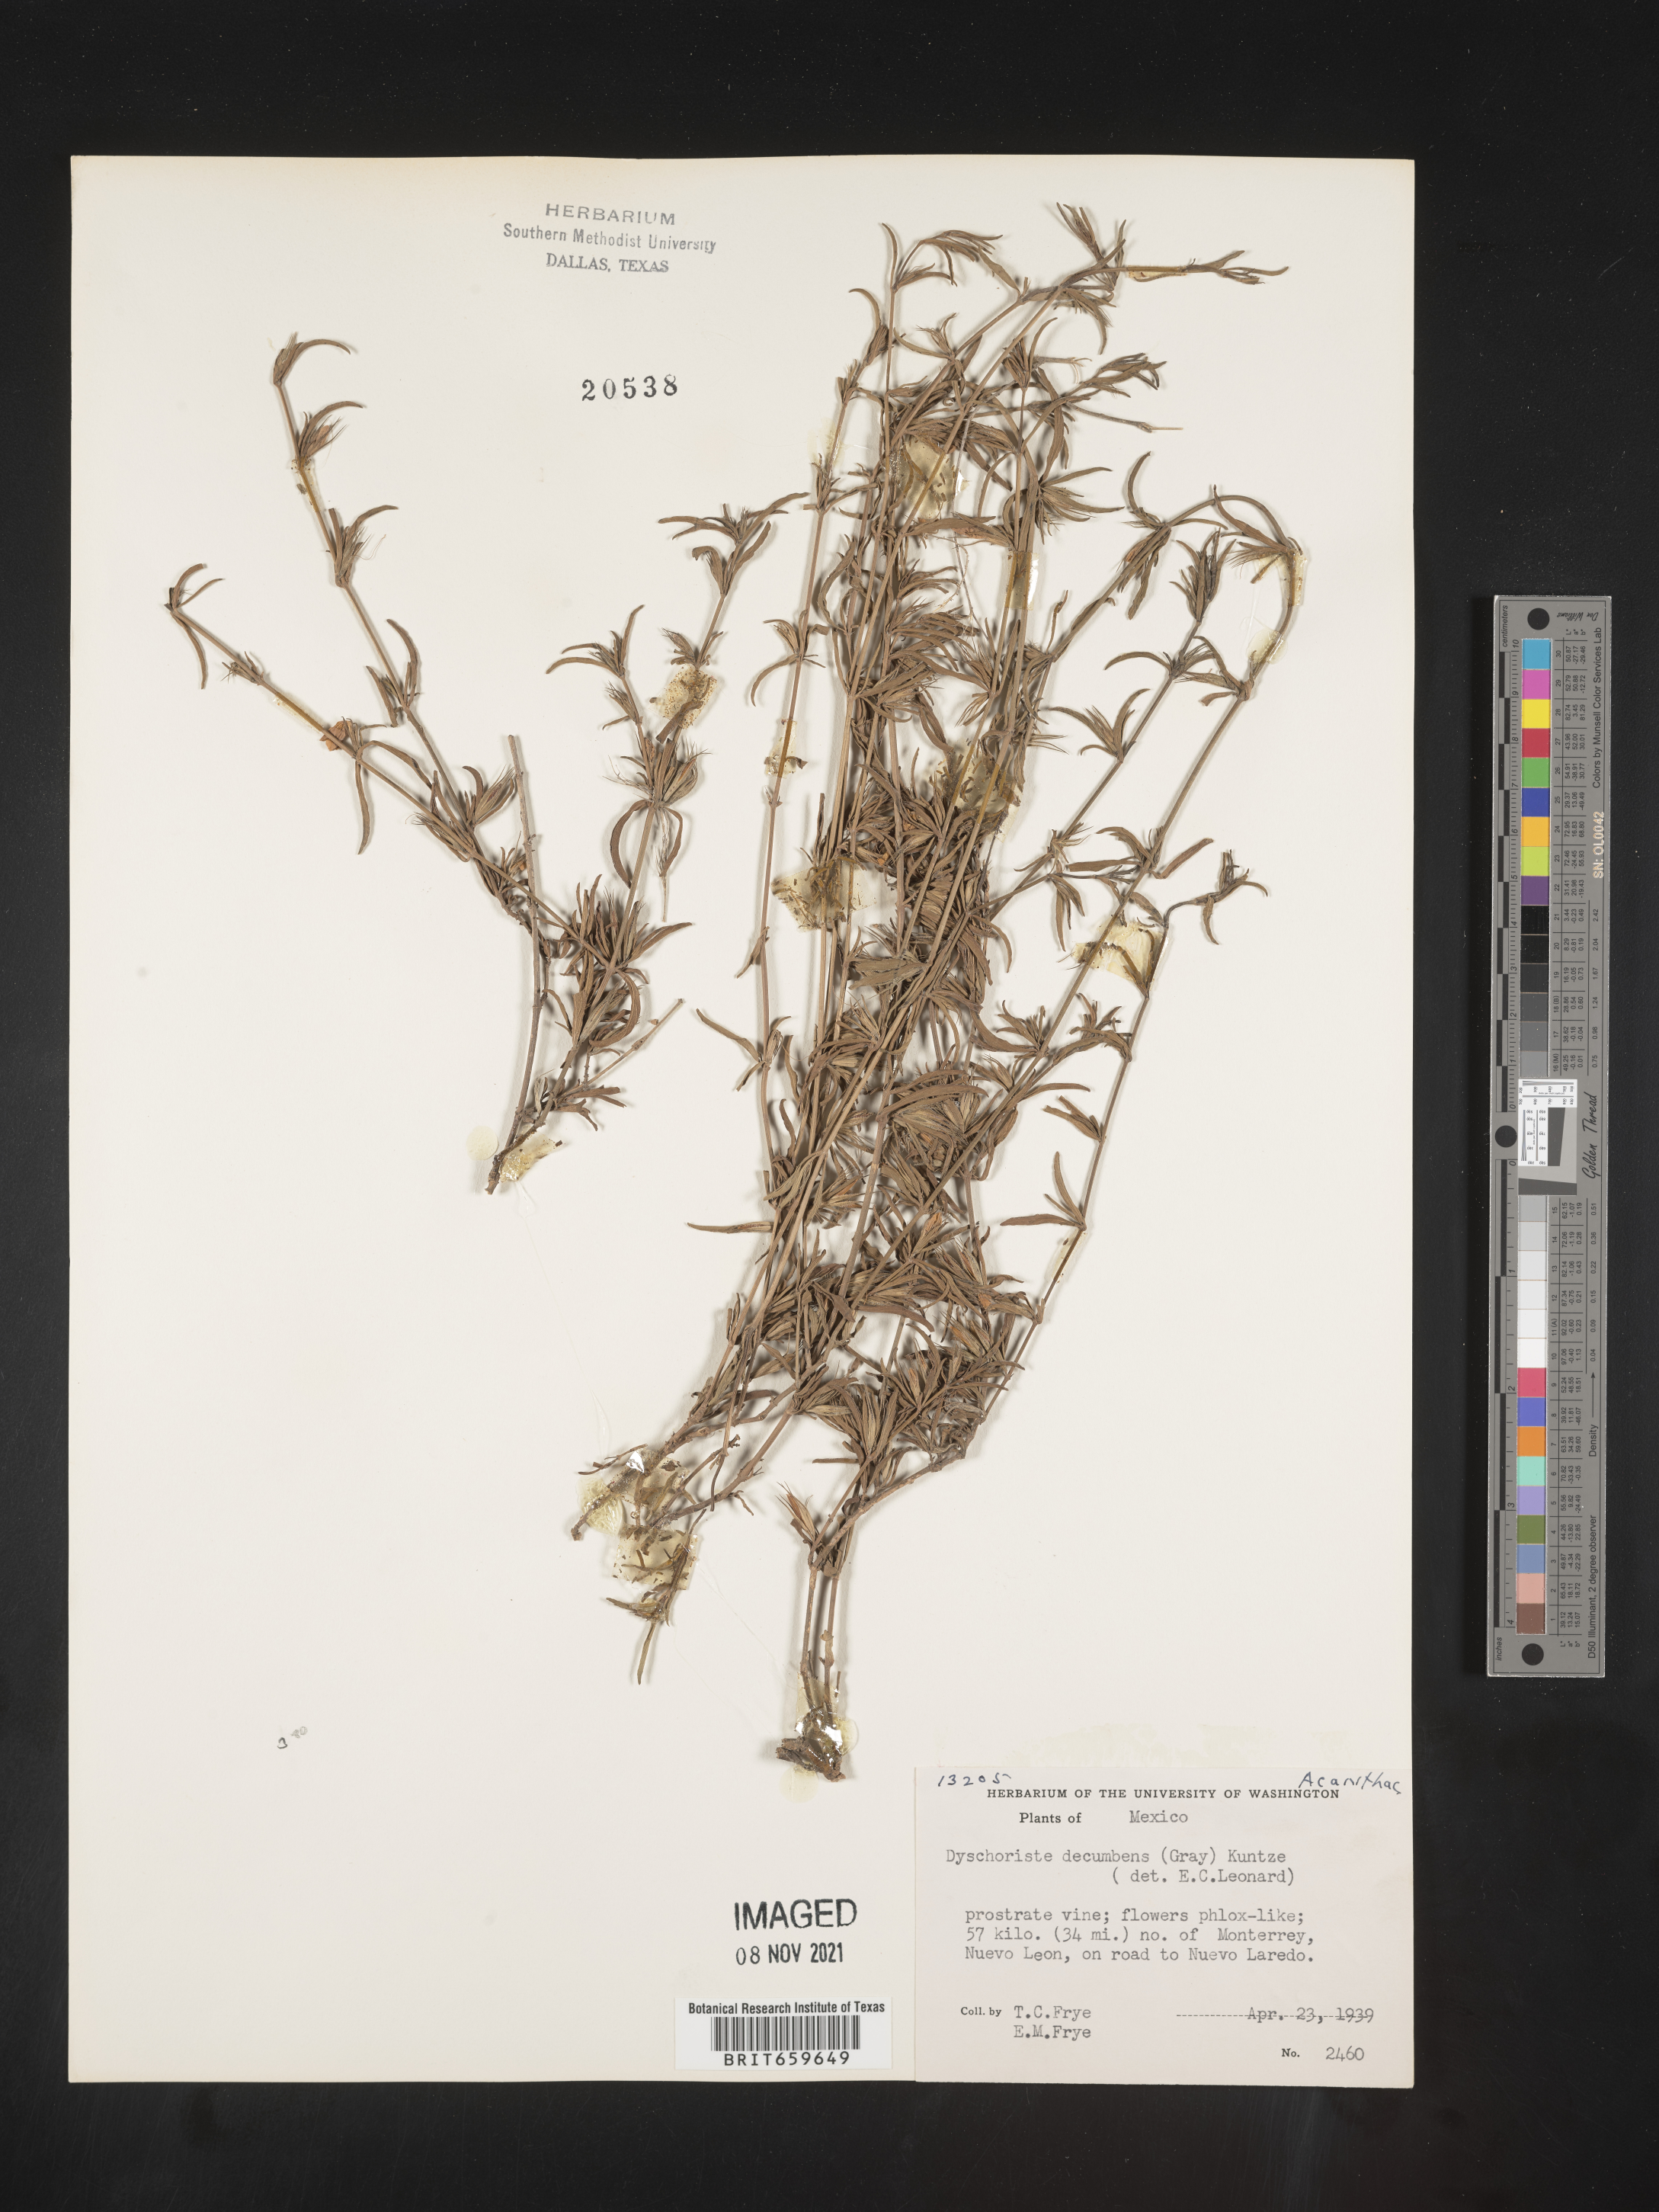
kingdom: Plantae
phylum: Tracheophyta
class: Magnoliopsida
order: Lamiales
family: Acanthaceae
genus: Dyschoriste
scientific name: Dyschoriste
